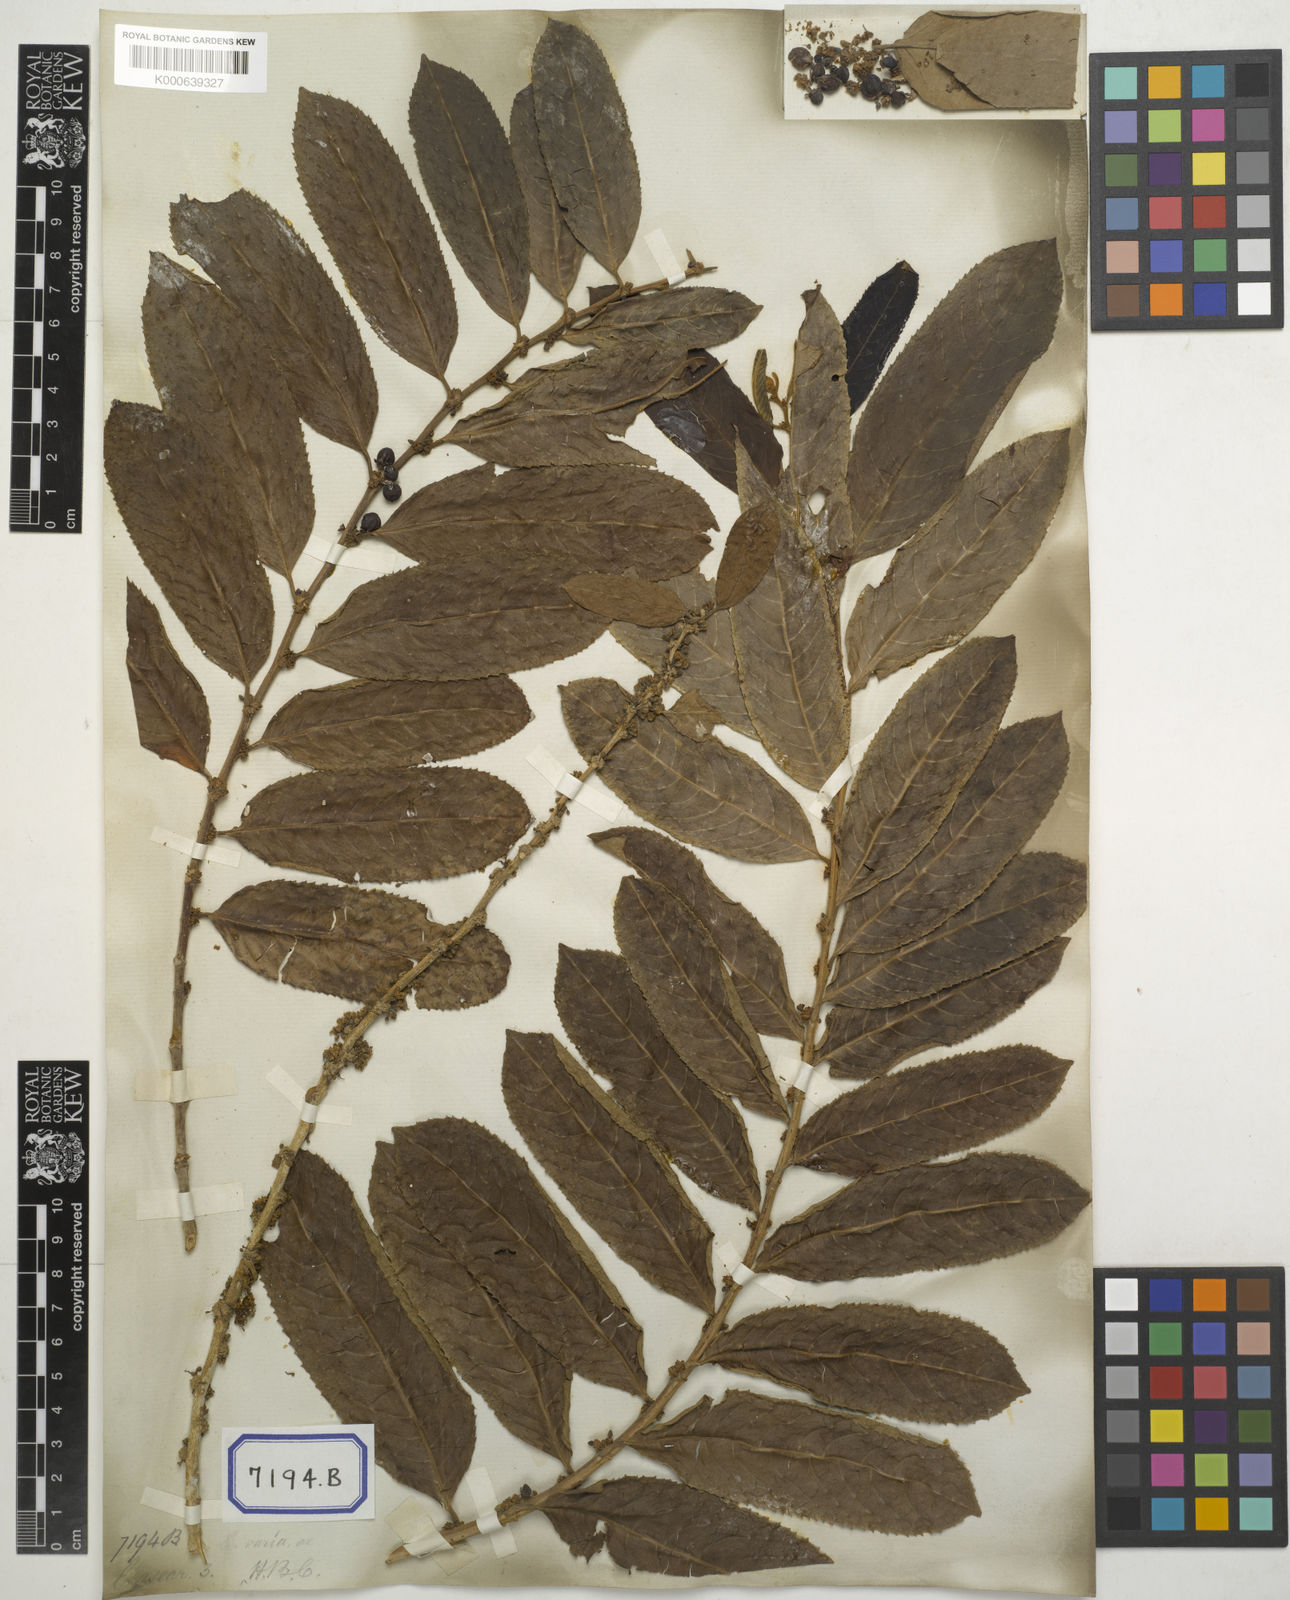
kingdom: Plantae
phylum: Tracheophyta
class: Magnoliopsida
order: Malpighiales
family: Salicaceae
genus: Casearia
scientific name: Casearia vareca
